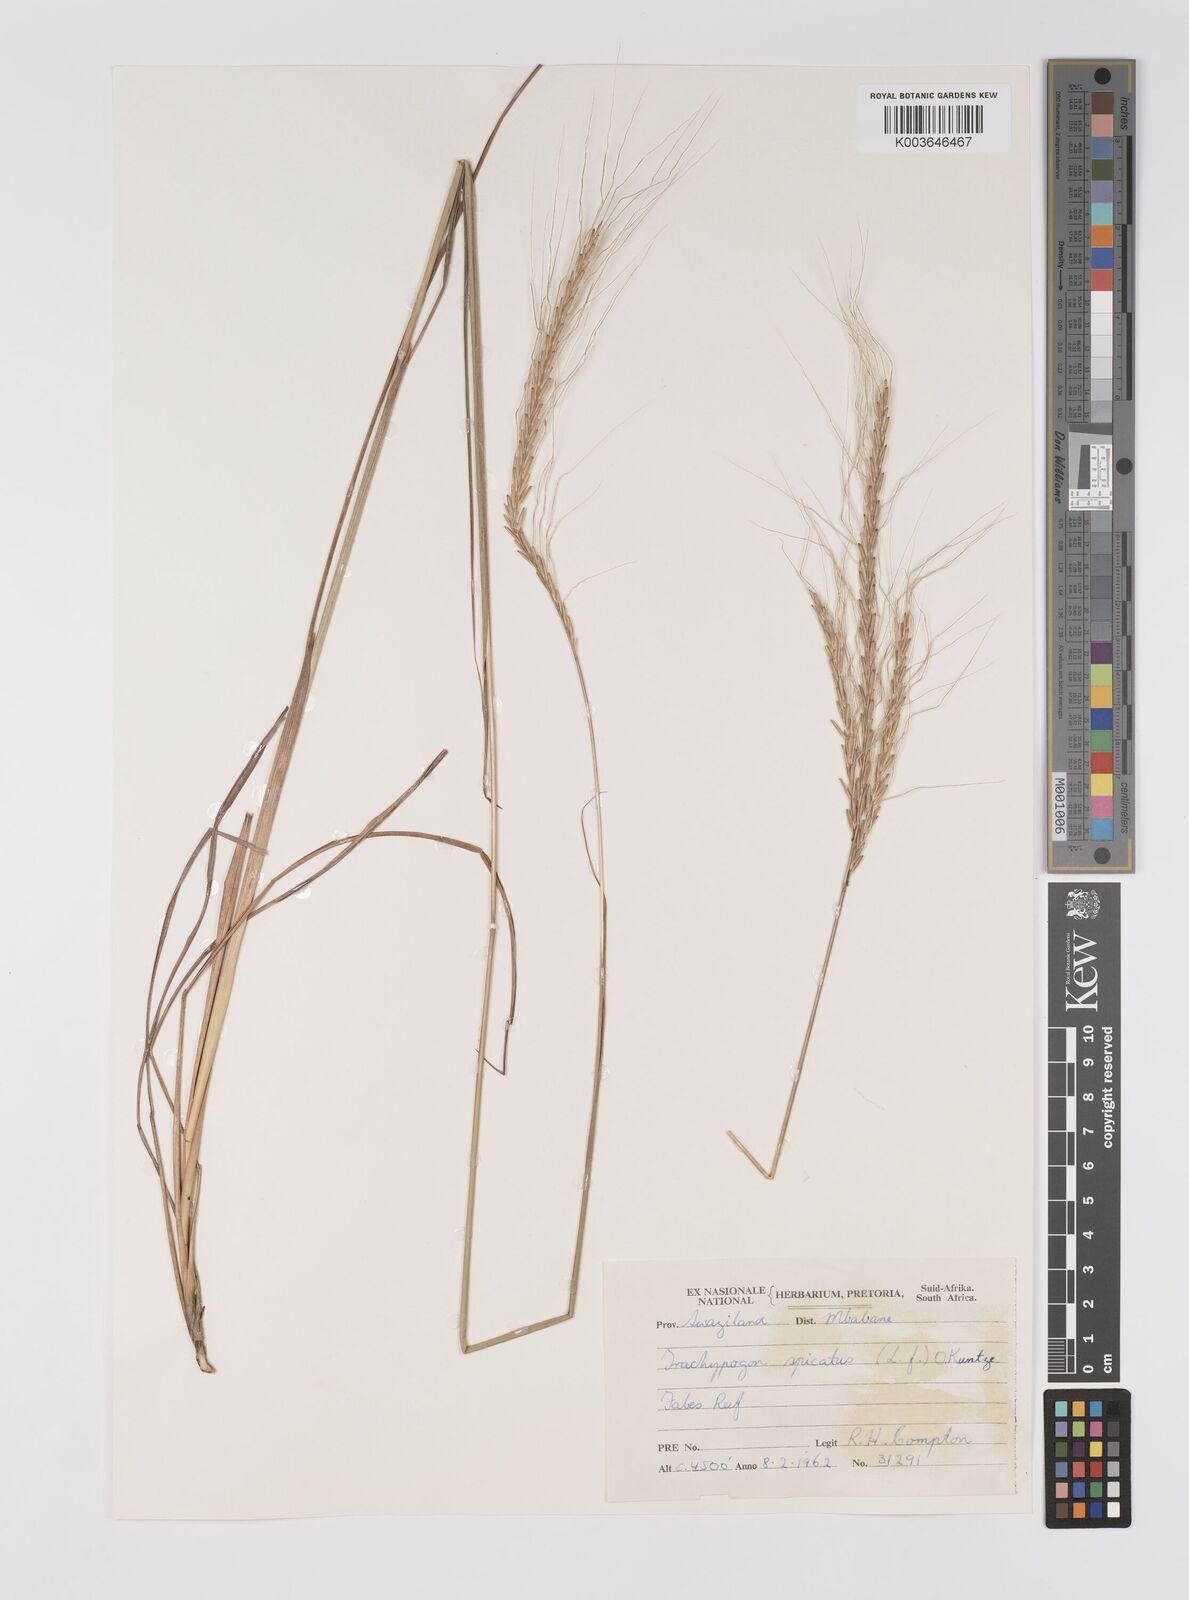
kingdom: Plantae
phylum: Tracheophyta
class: Liliopsida
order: Poales
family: Poaceae
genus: Trachypogon
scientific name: Trachypogon spicatus
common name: Crinkle-awn
